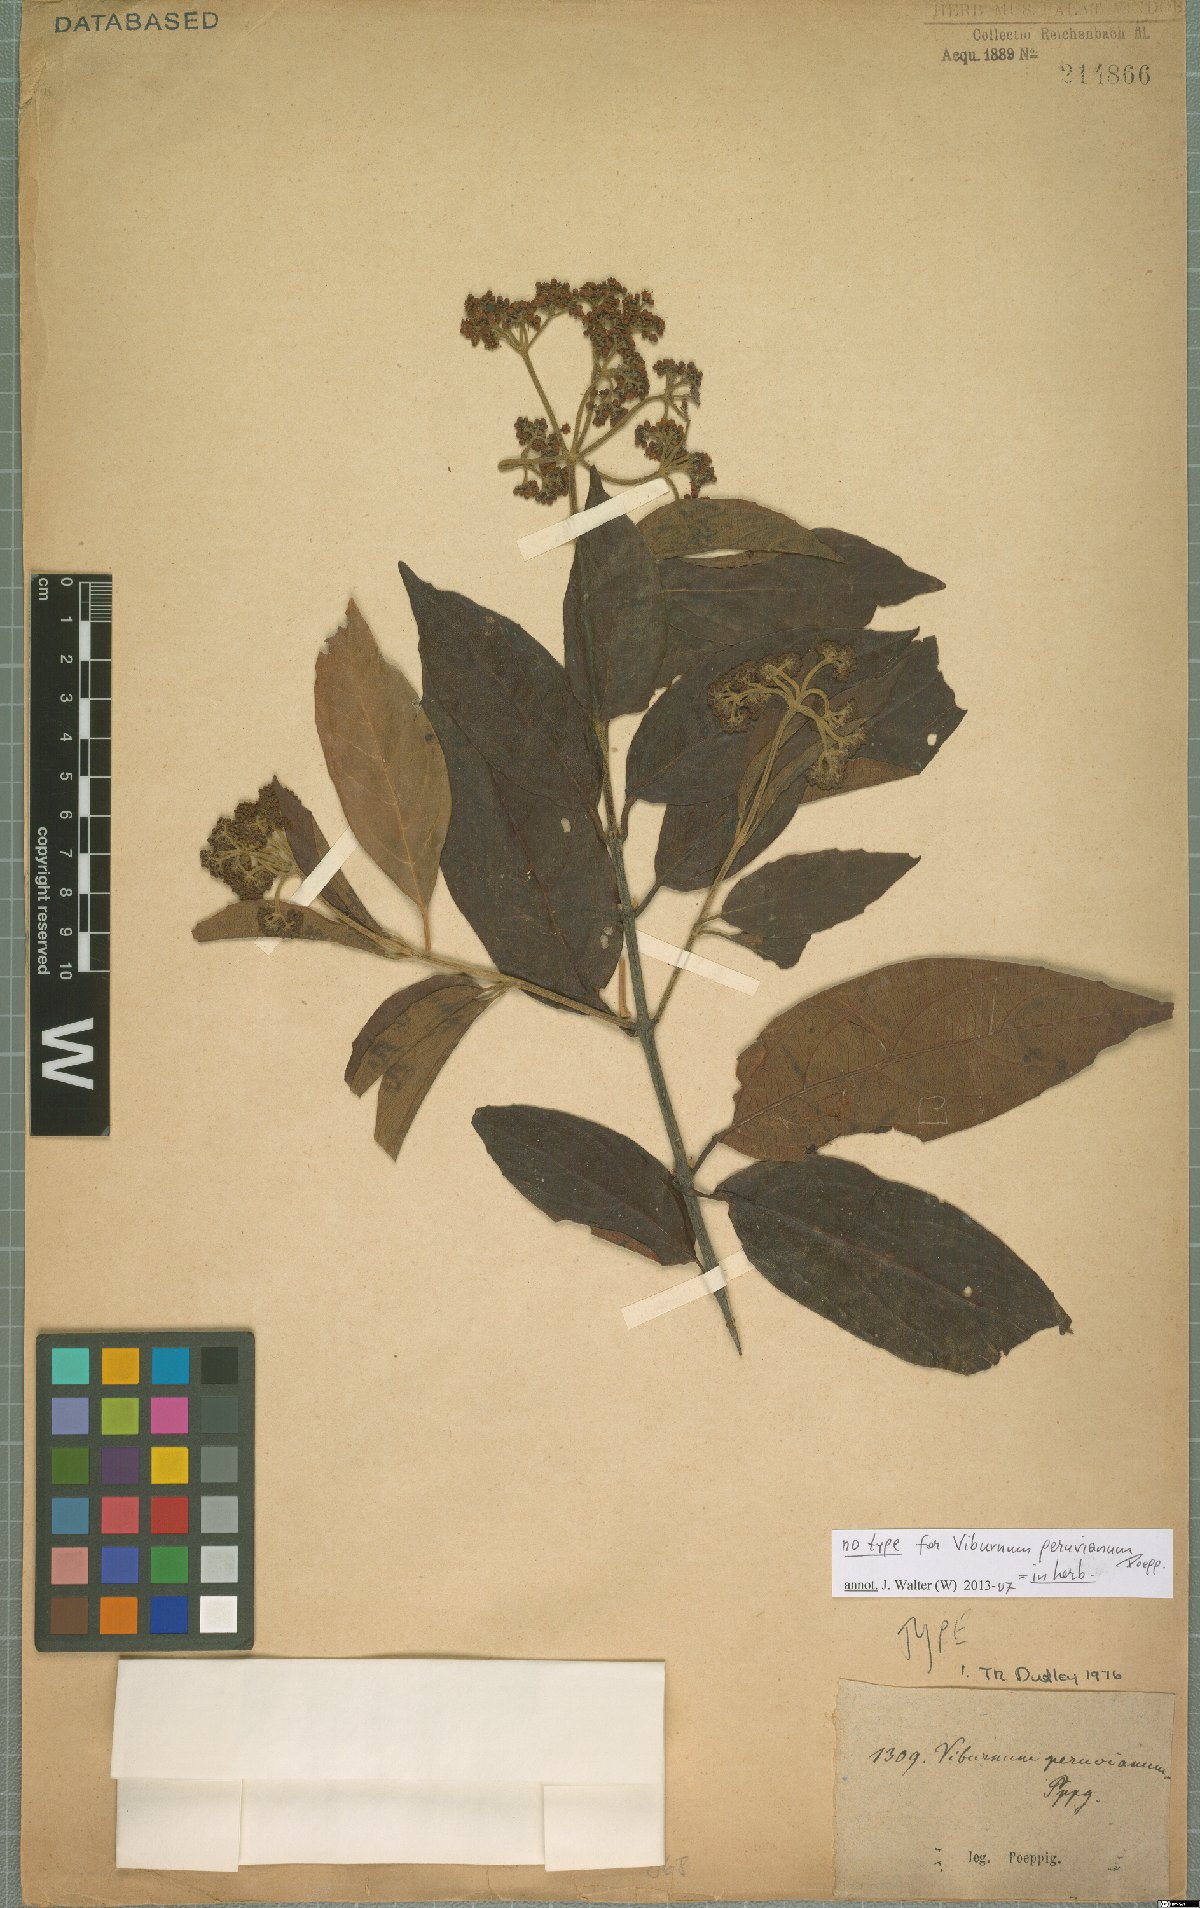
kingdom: Plantae
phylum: Tracheophyta
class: Magnoliopsida
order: Dipsacales
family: Viburnaceae
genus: Viburnum
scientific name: Viburnum peruvianum
